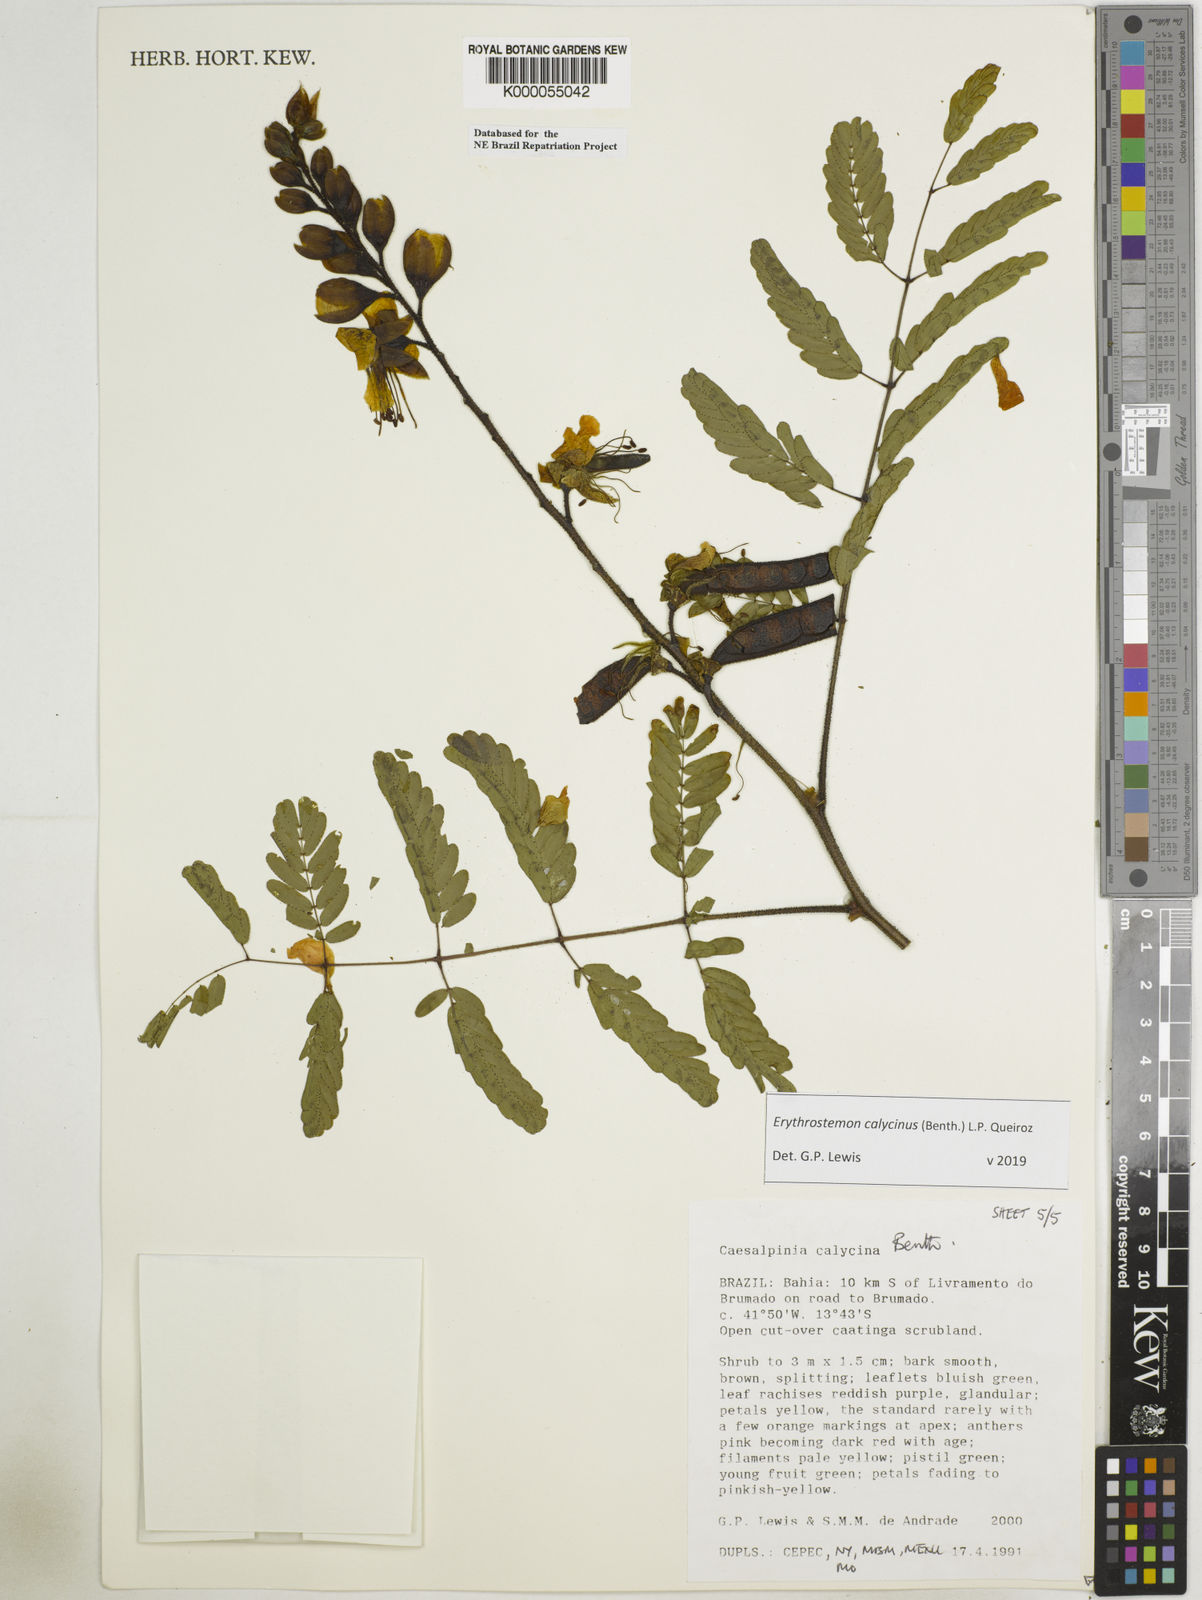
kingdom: Plantae
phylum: Tracheophyta
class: Magnoliopsida
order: Fabales
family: Fabaceae
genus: Erythrostemon
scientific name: Erythrostemon calycinus
